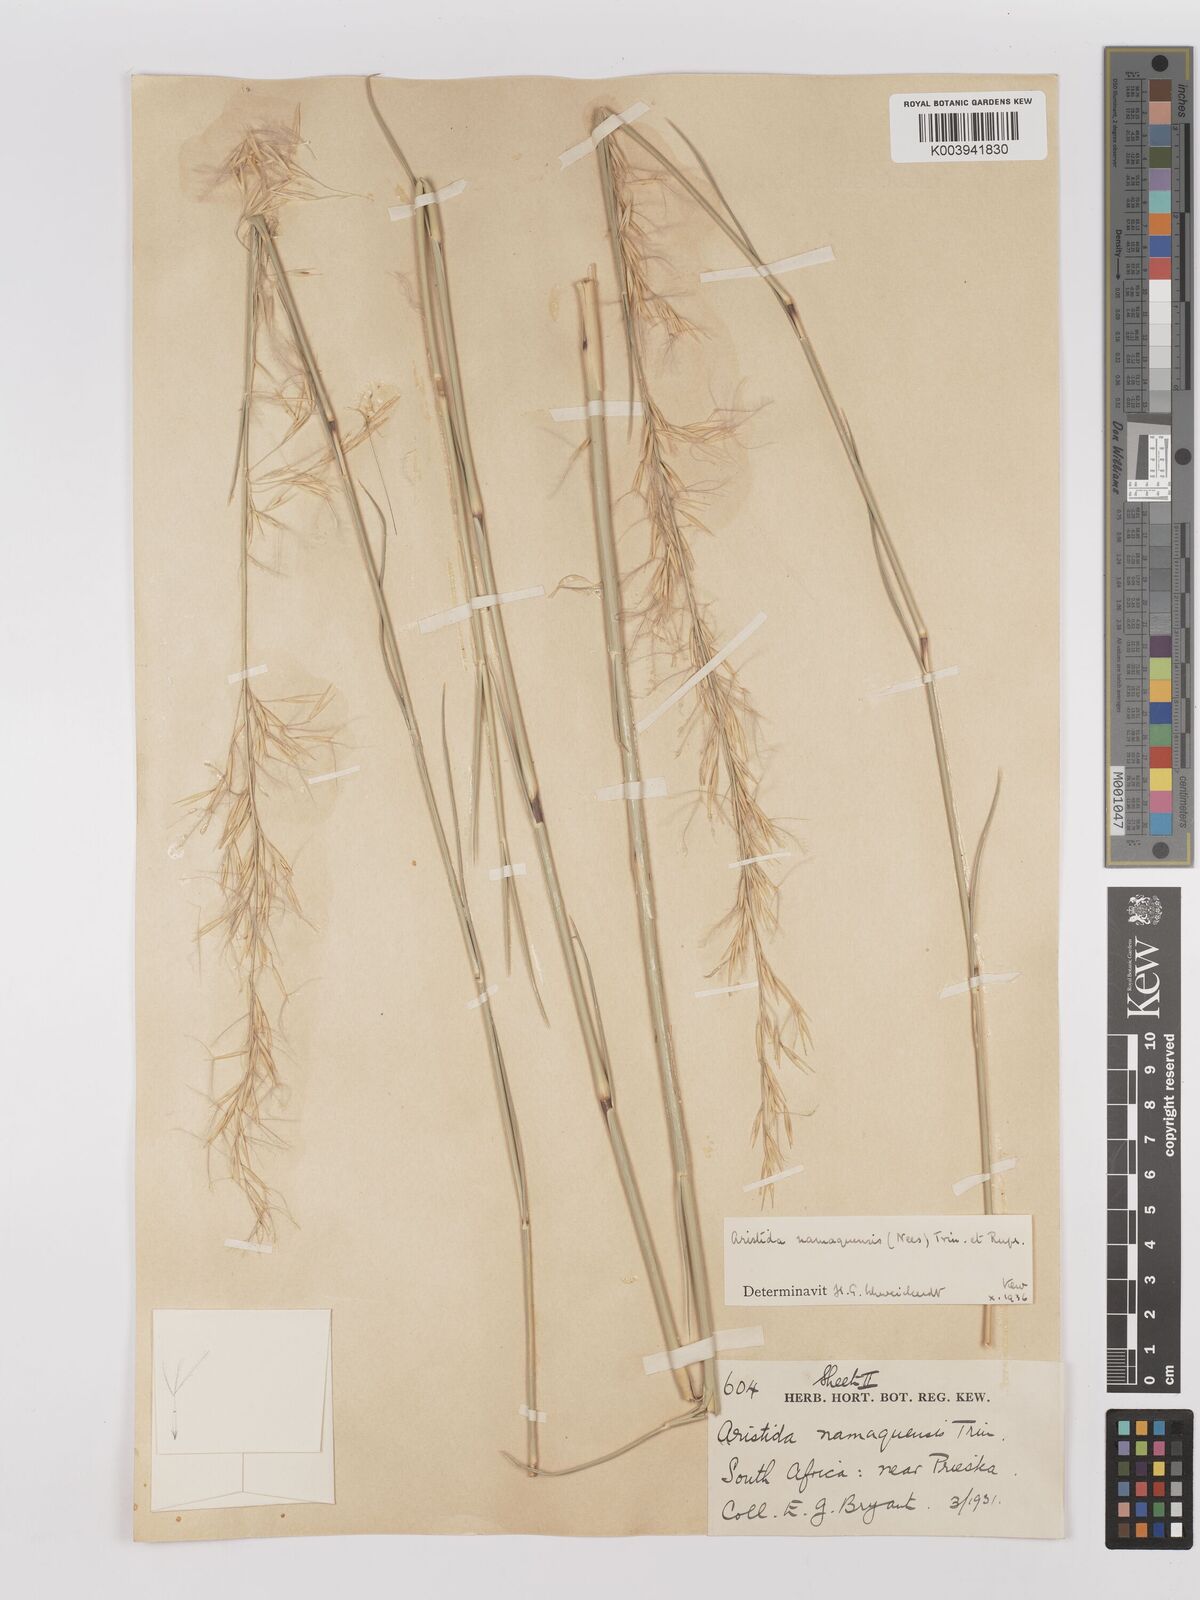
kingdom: Plantae
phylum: Tracheophyta
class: Liliopsida
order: Poales
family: Poaceae
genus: Stipagrostis
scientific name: Stipagrostis namaquensis
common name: River bushman grass
